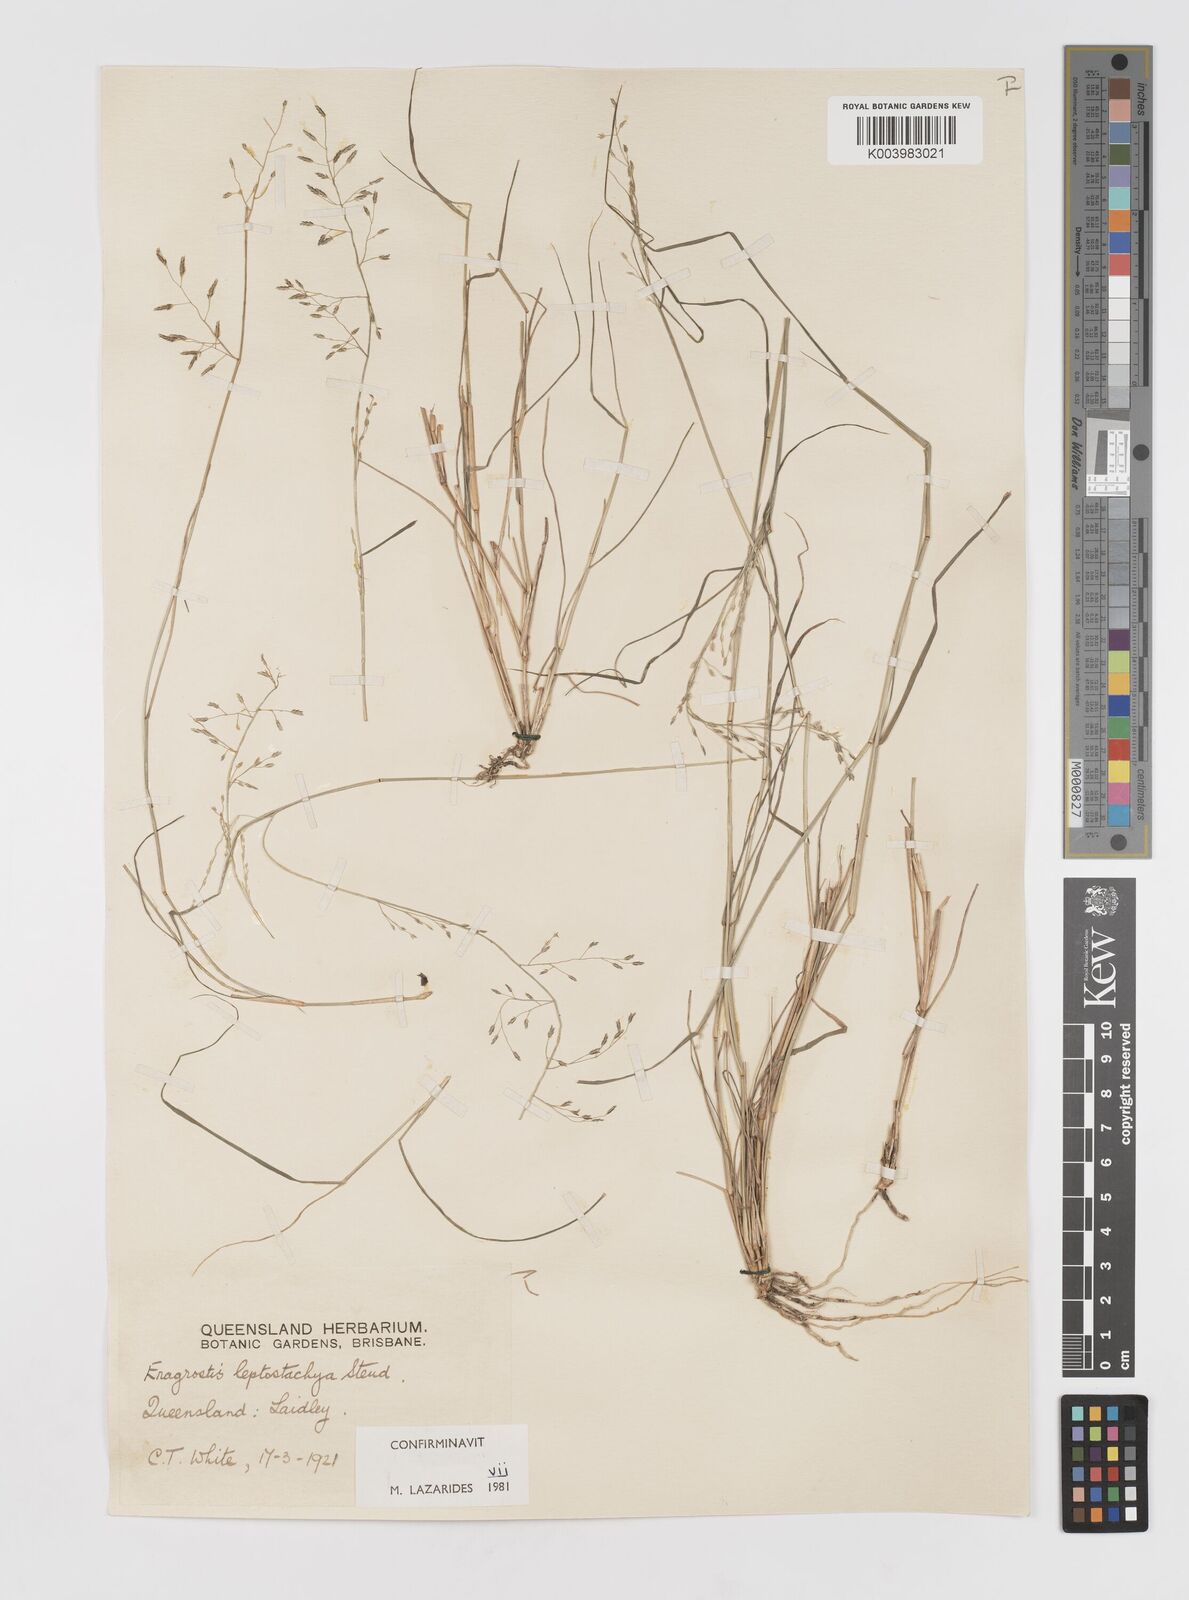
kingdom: Plantae
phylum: Tracheophyta
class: Liliopsida
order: Poales
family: Poaceae
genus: Eragrostis
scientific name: Eragrostis leptostachya
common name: Australian lovegrass
